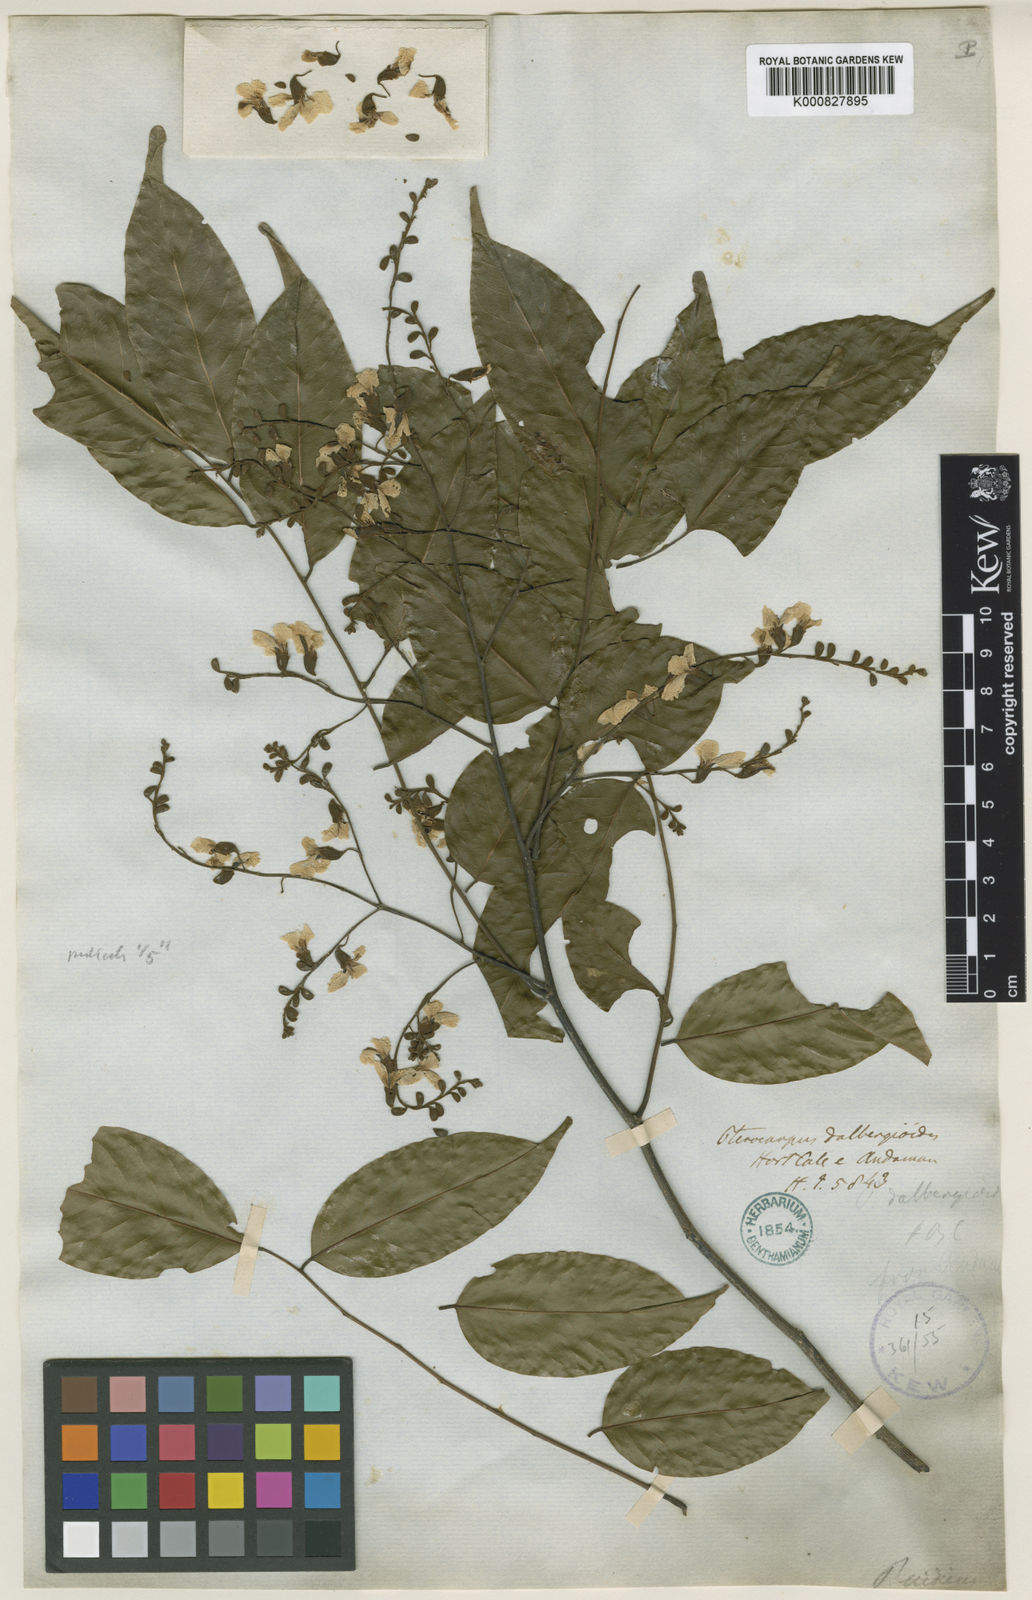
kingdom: Plantae
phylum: Tracheophyta
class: Magnoliopsida
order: Fabales
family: Fabaceae
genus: Pterocarpus
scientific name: Pterocarpus
